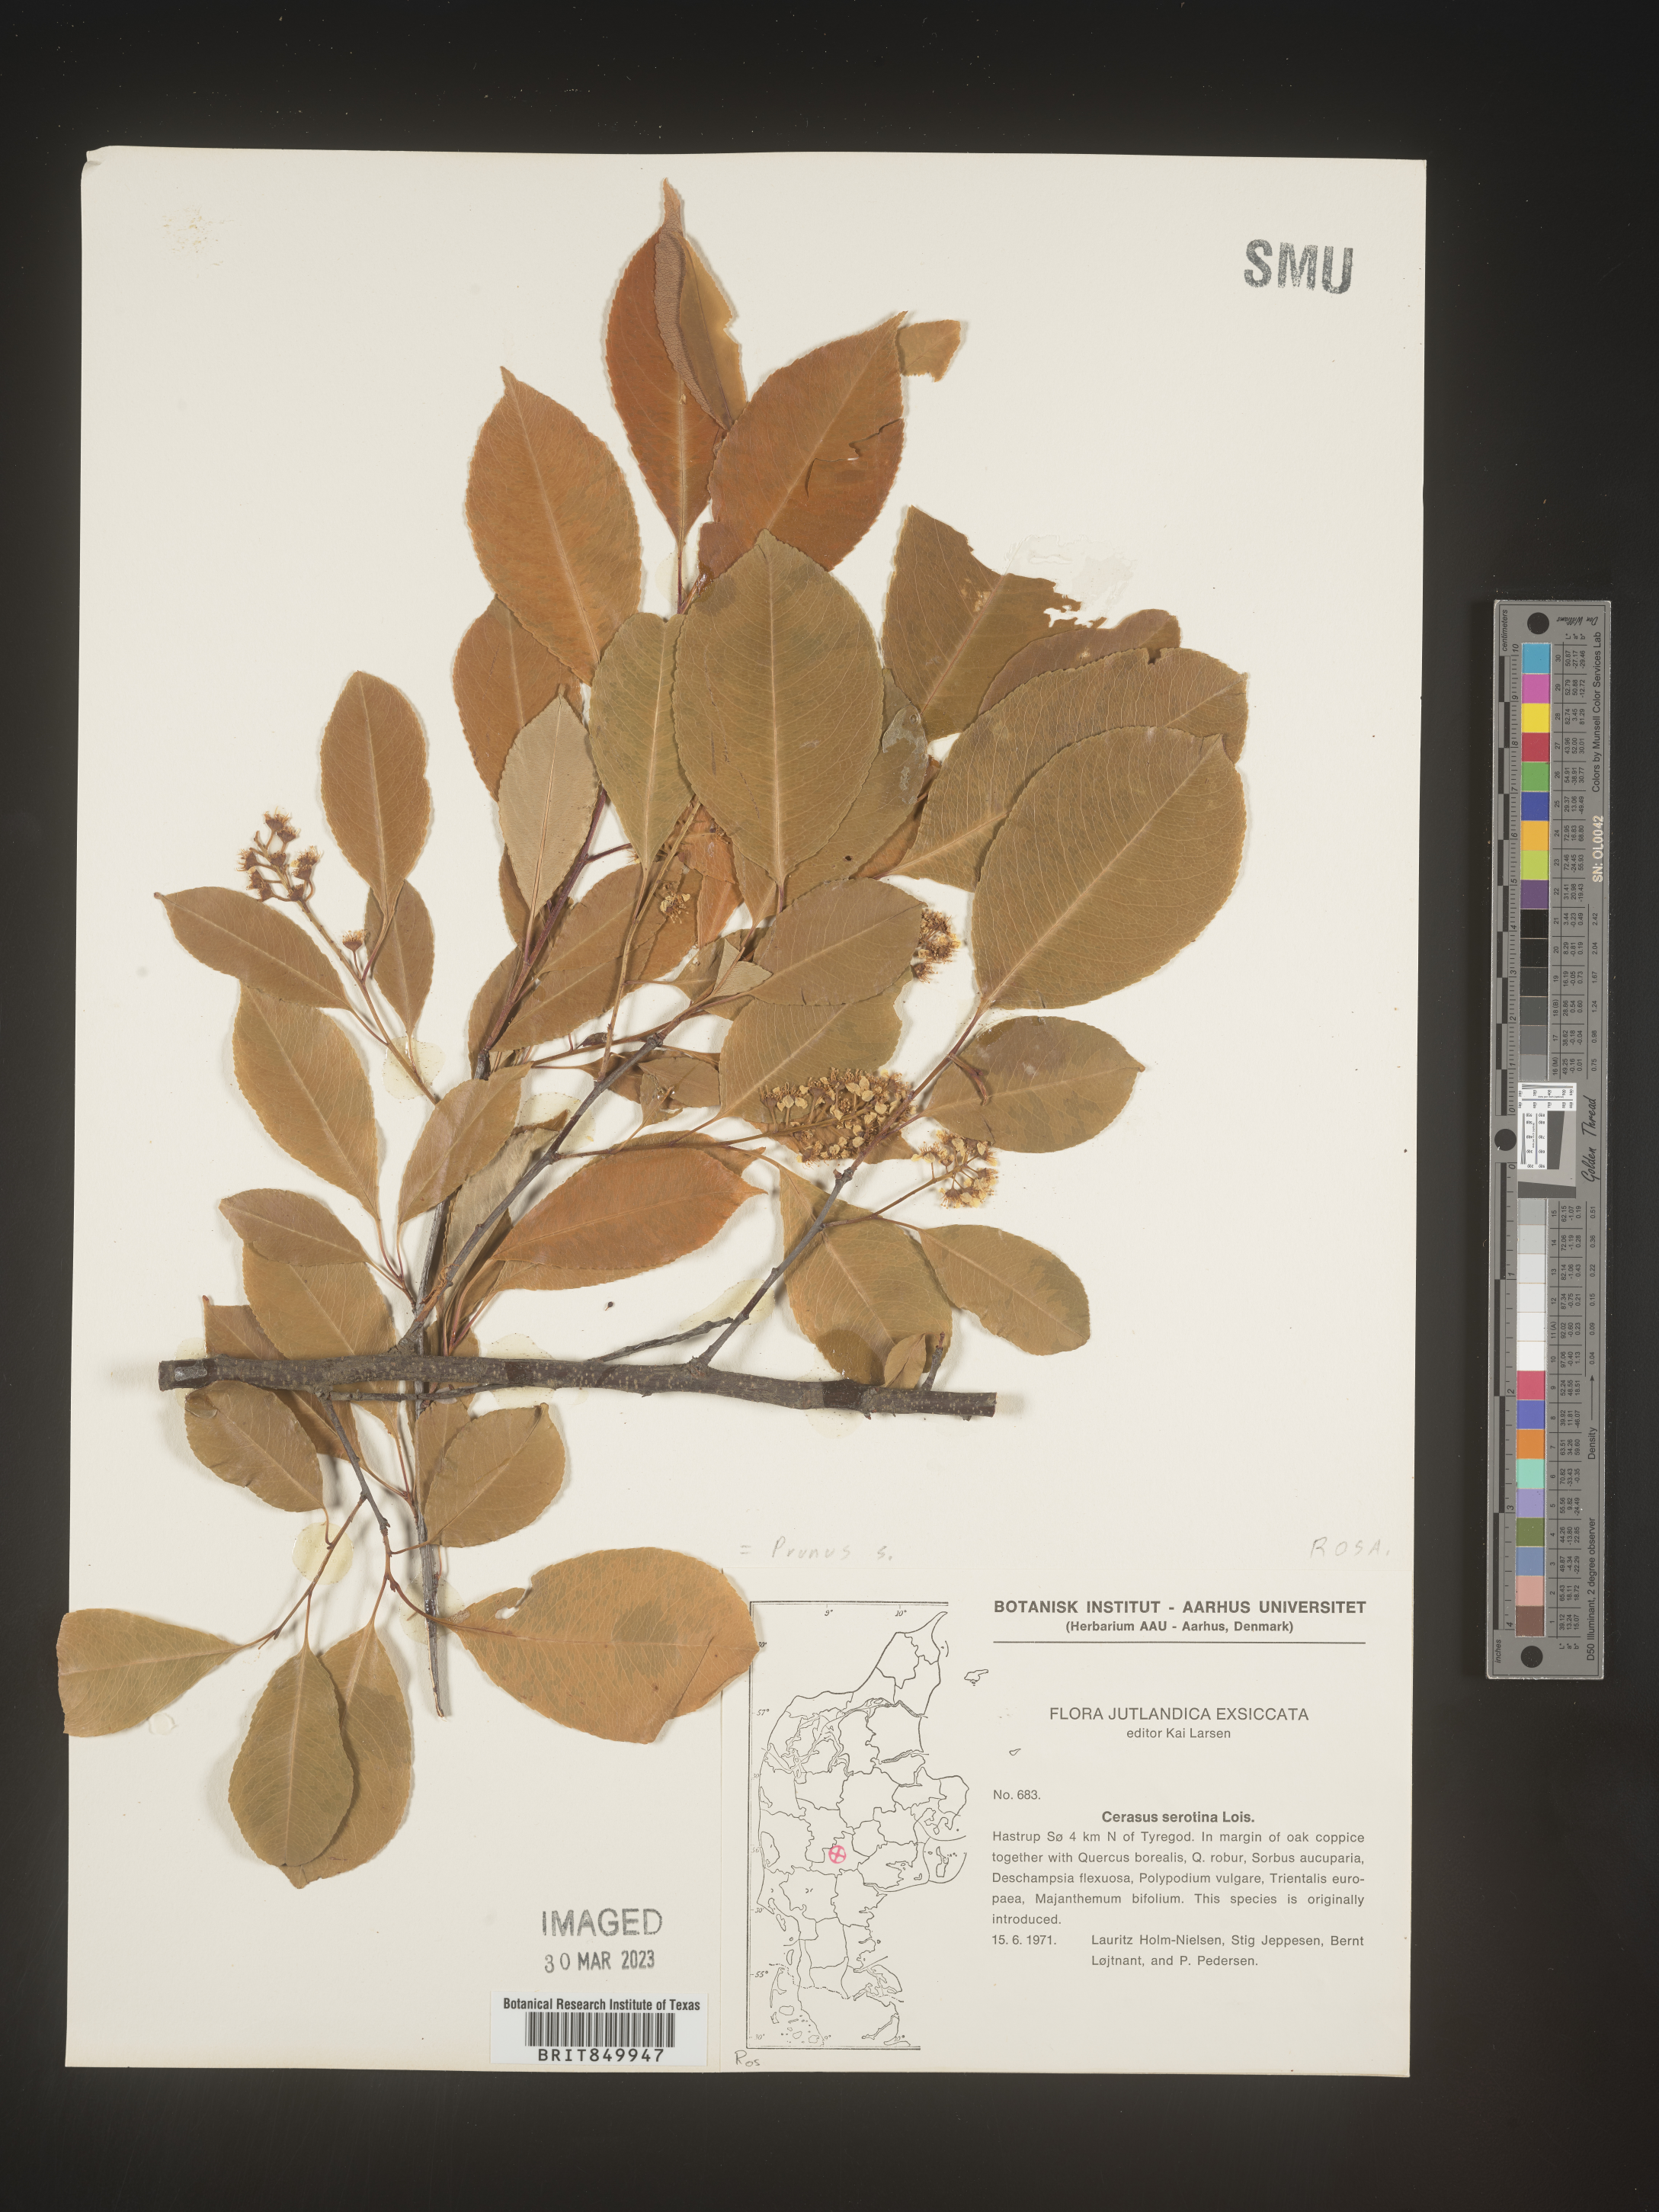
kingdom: Plantae
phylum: Tracheophyta
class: Magnoliopsida
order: Rosales
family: Rosaceae
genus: Prunus
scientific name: Prunus
